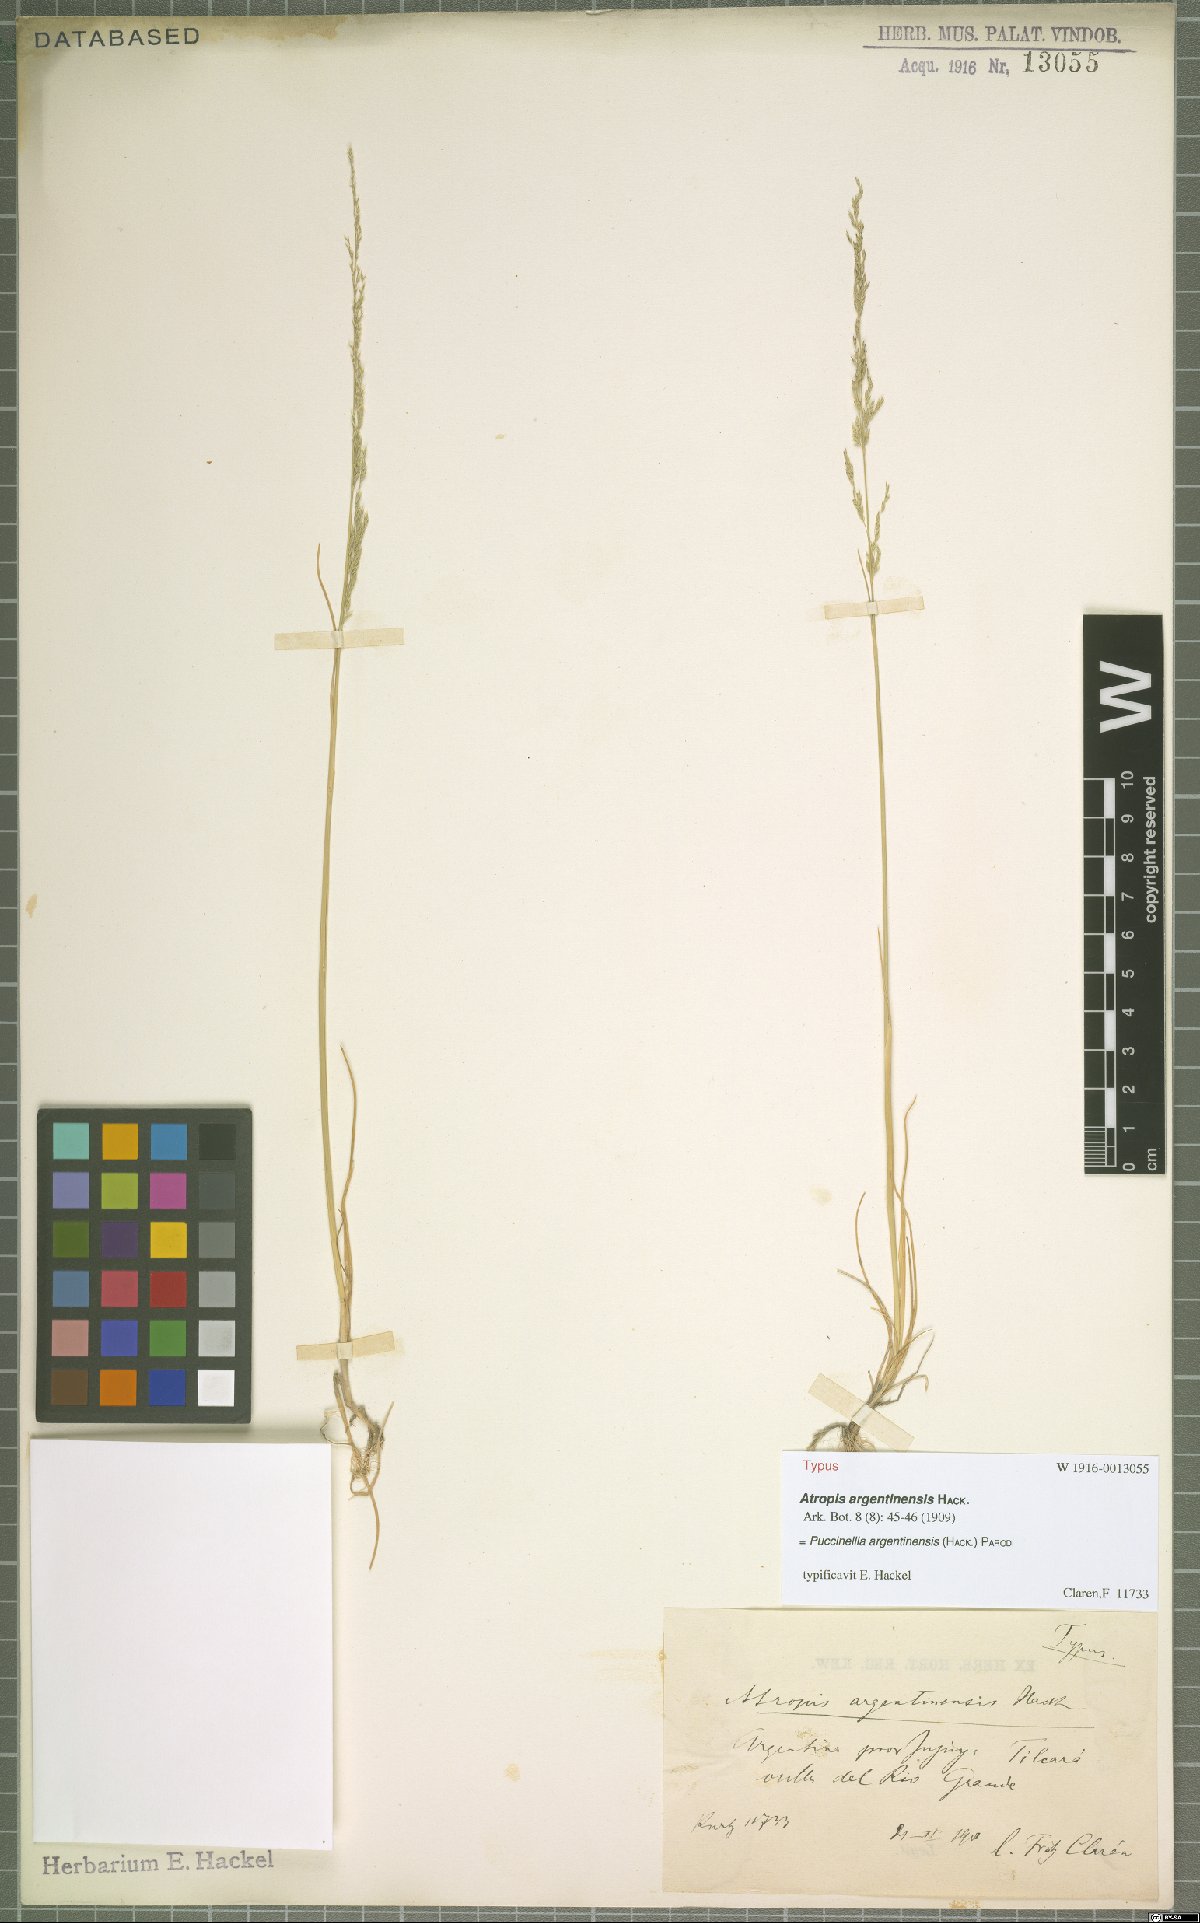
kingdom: Plantae
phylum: Tracheophyta
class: Liliopsida
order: Poales
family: Poaceae
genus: Puccinellia
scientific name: Puccinellia argentinensis
